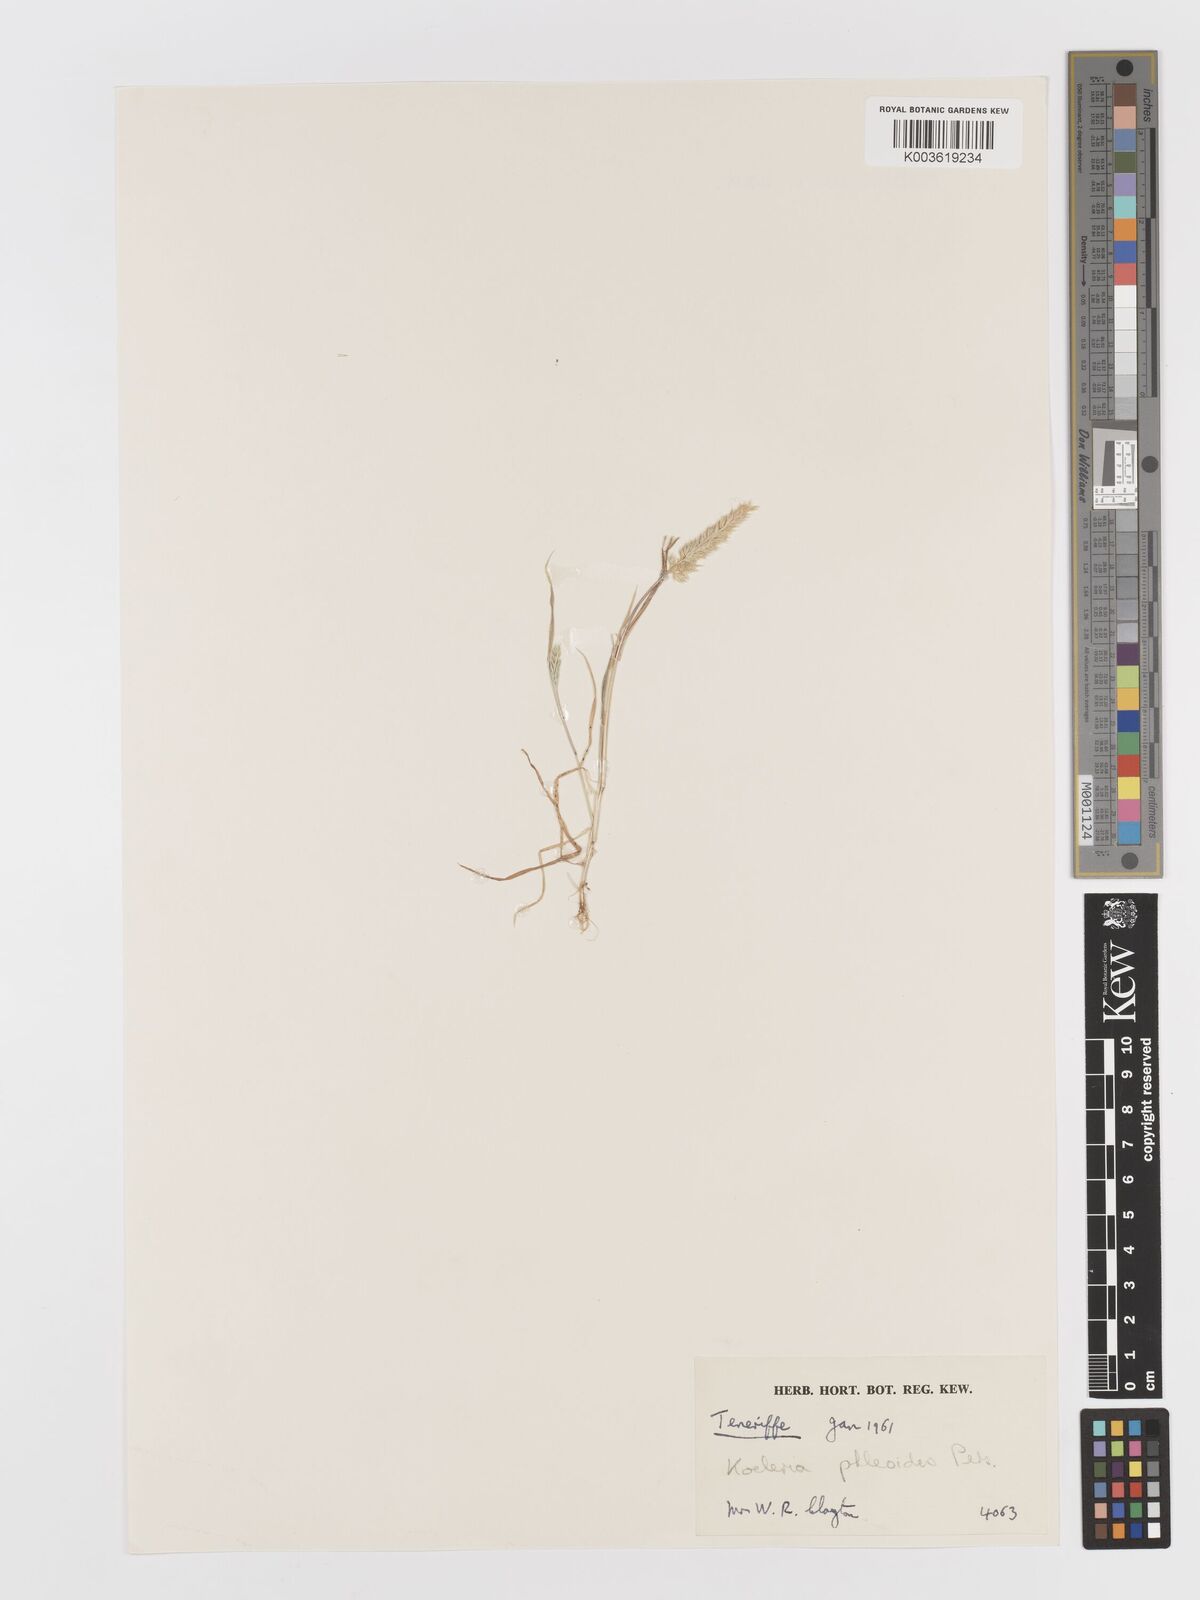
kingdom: Plantae
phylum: Tracheophyta
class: Liliopsida
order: Poales
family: Poaceae
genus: Rostraria
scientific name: Rostraria cristata
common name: Mediterranean hair-grass
